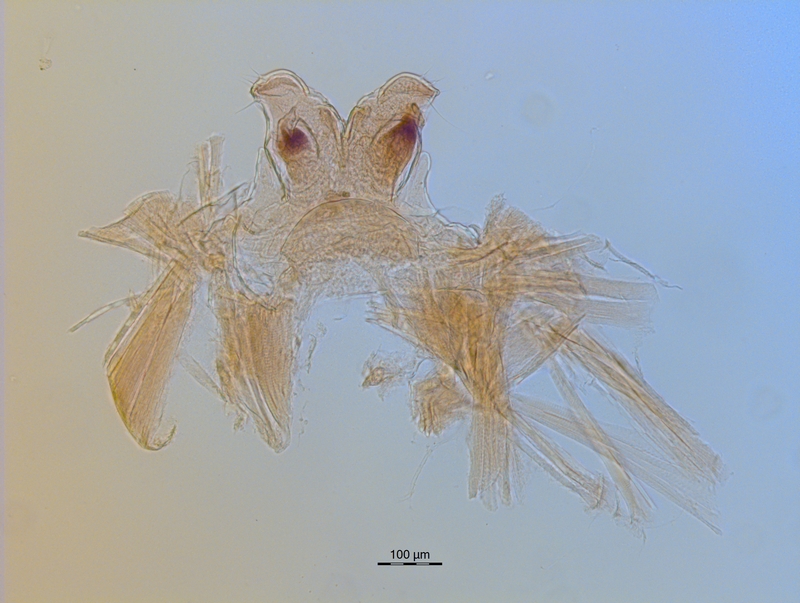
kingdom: Animalia
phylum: Arthropoda
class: Diplopoda
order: Chordeumatida
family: Craspedosomatidae
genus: Ochogona
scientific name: Ochogona caroli
